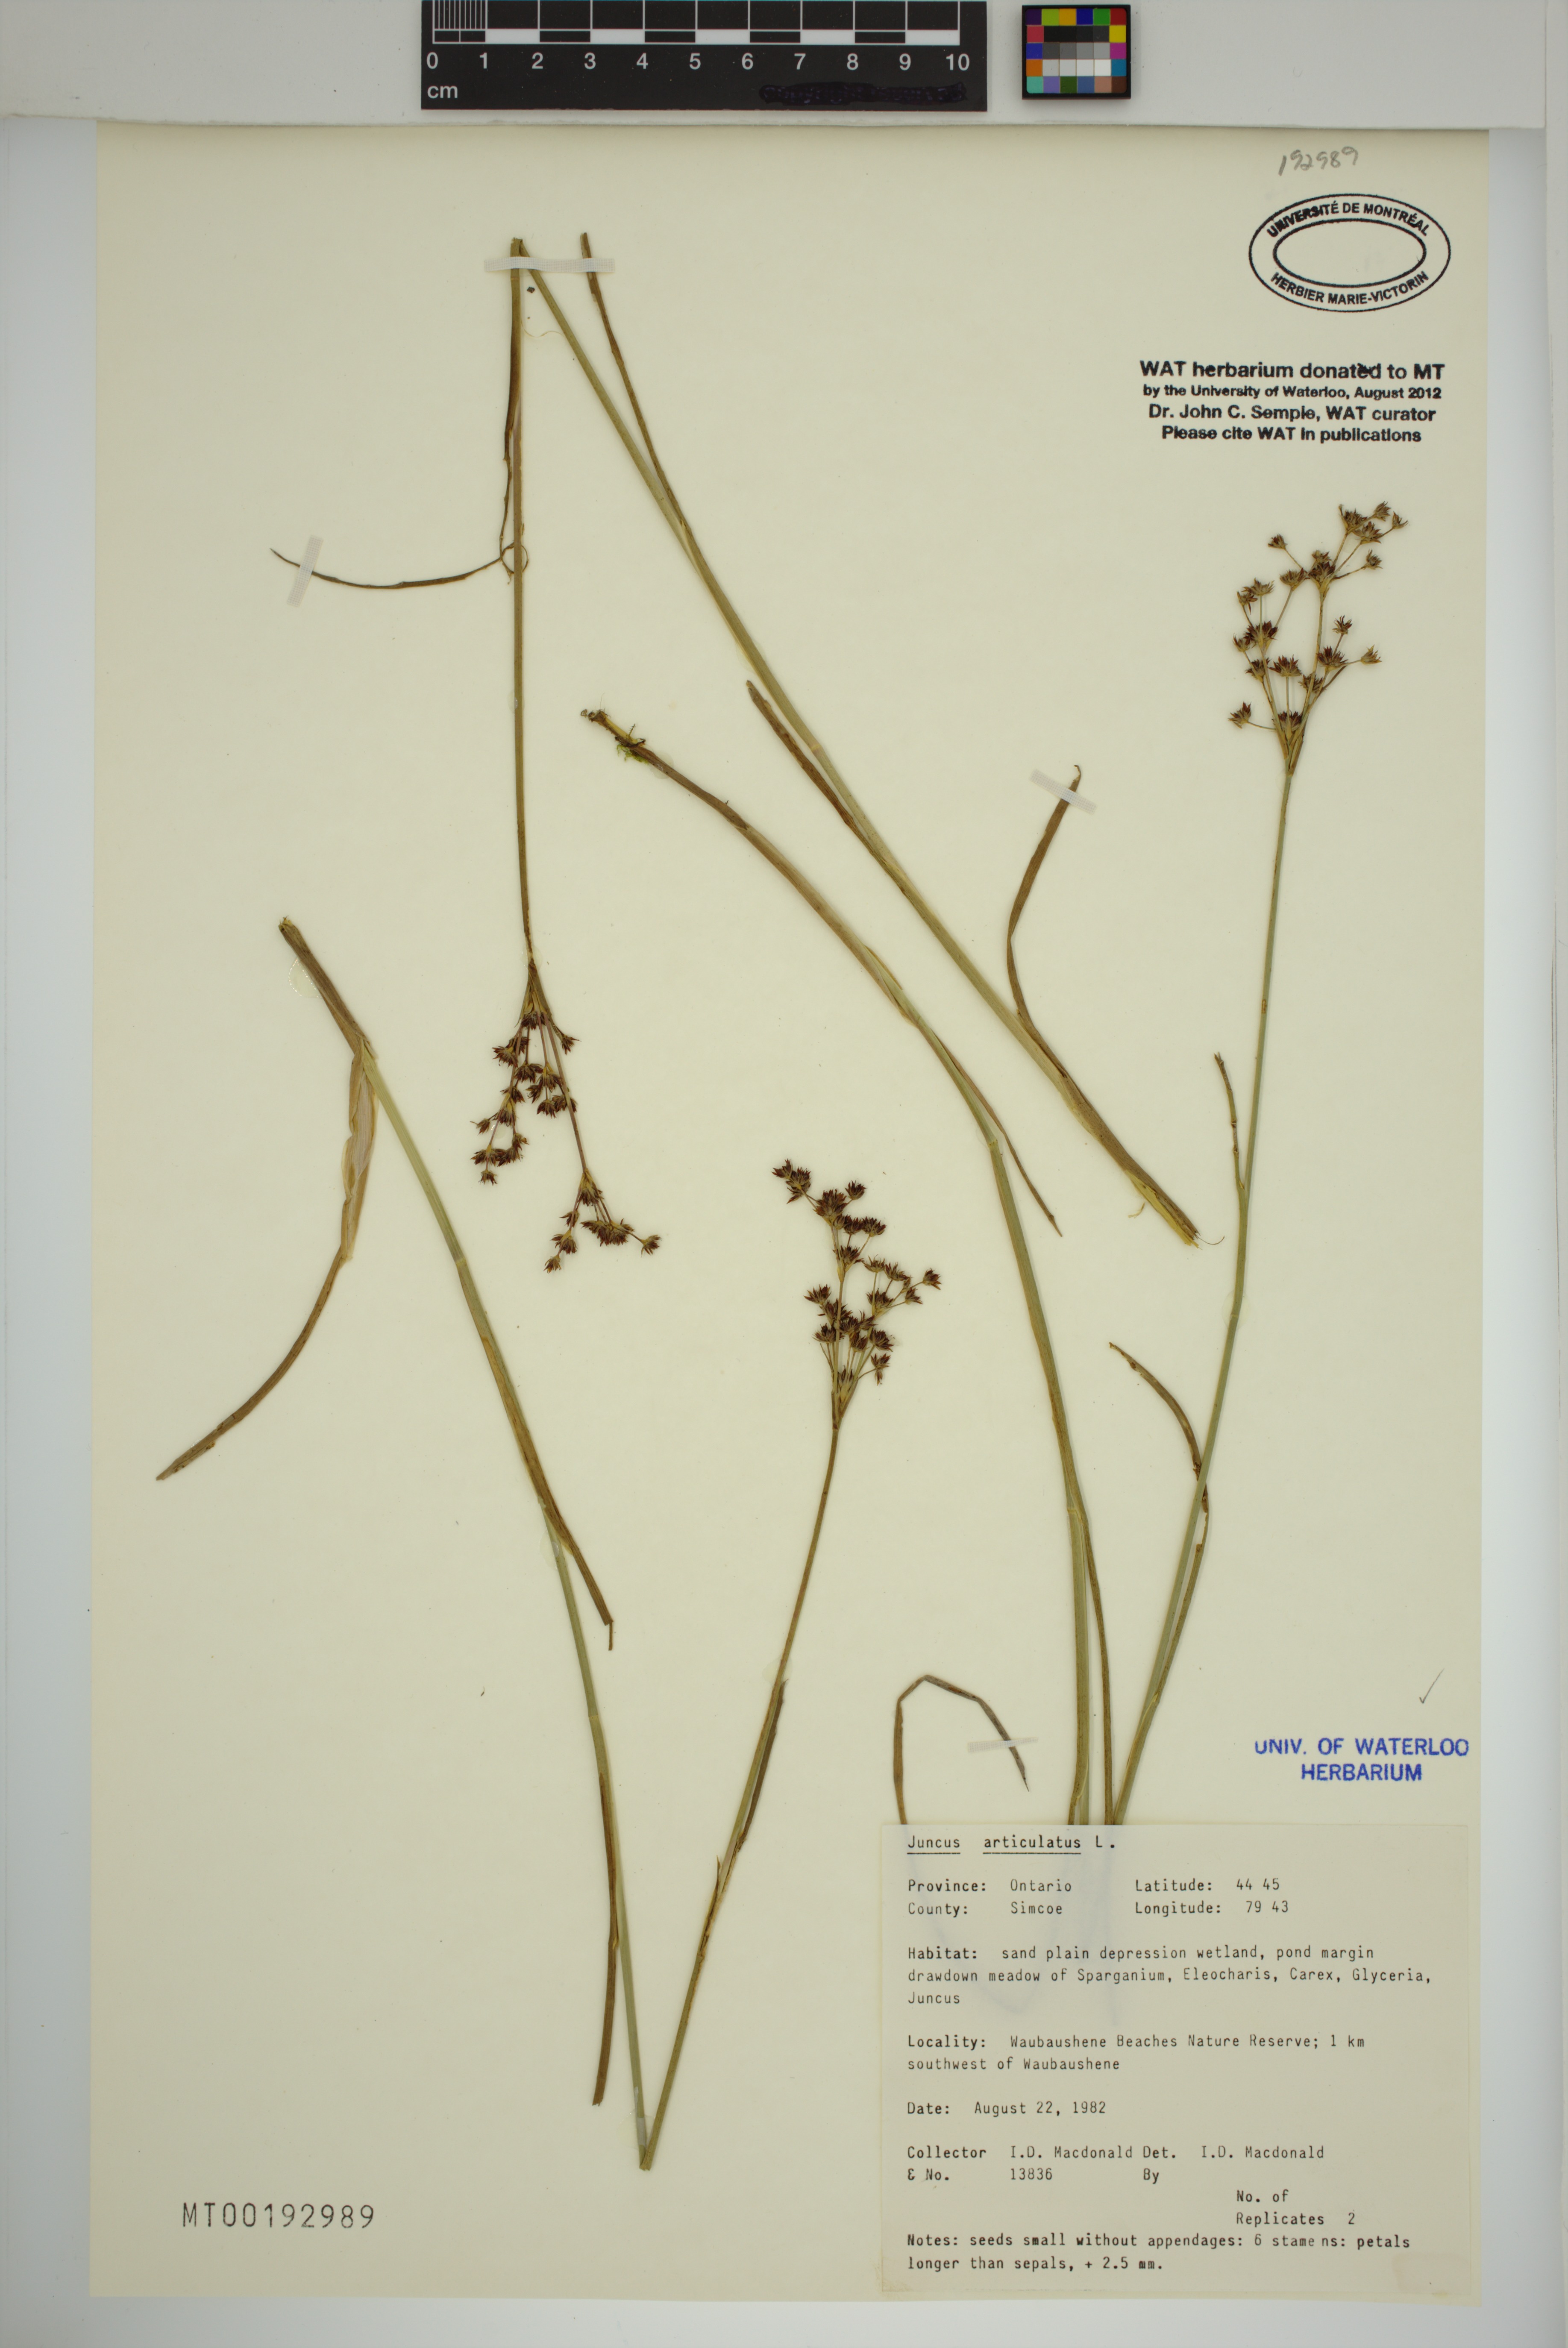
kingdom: Plantae
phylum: Tracheophyta
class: Liliopsida
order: Poales
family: Juncaceae
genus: Juncus
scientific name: Juncus articulatus
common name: Jointed rush
